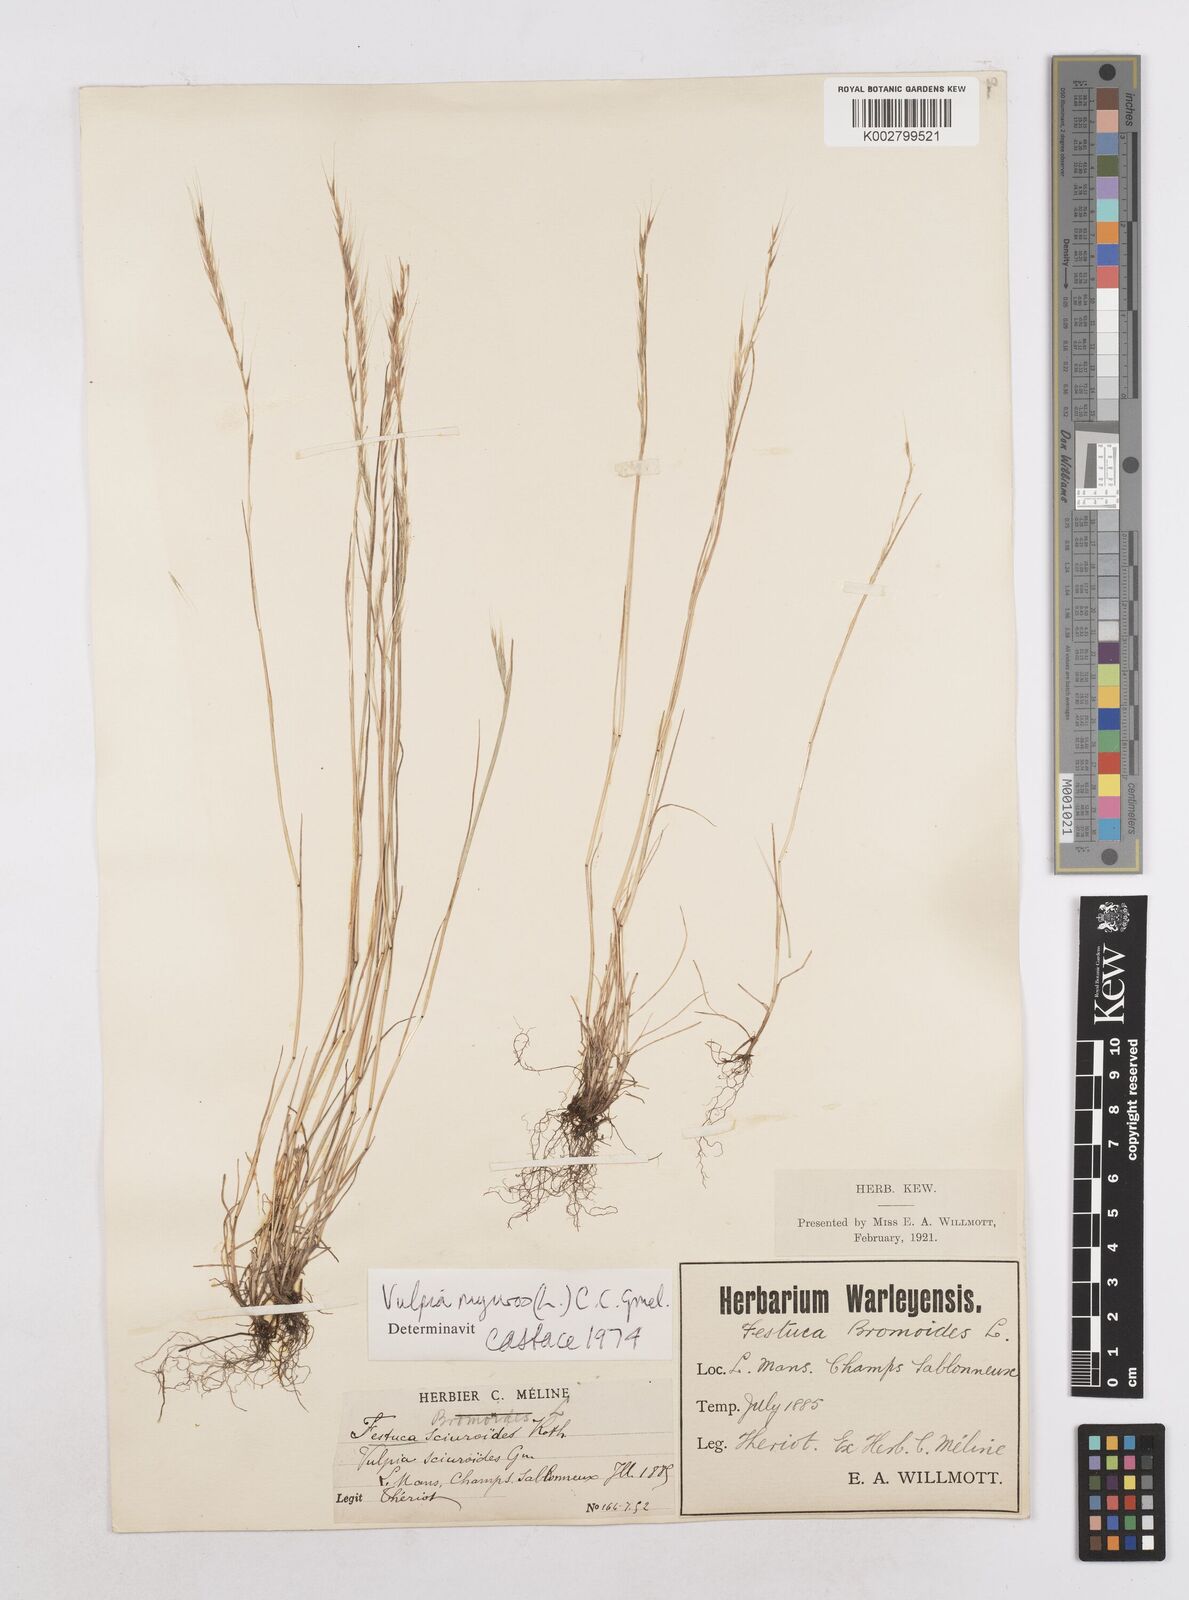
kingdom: Plantae
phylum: Tracheophyta
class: Liliopsida
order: Poales
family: Poaceae
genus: Festuca
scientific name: Festuca myuros
